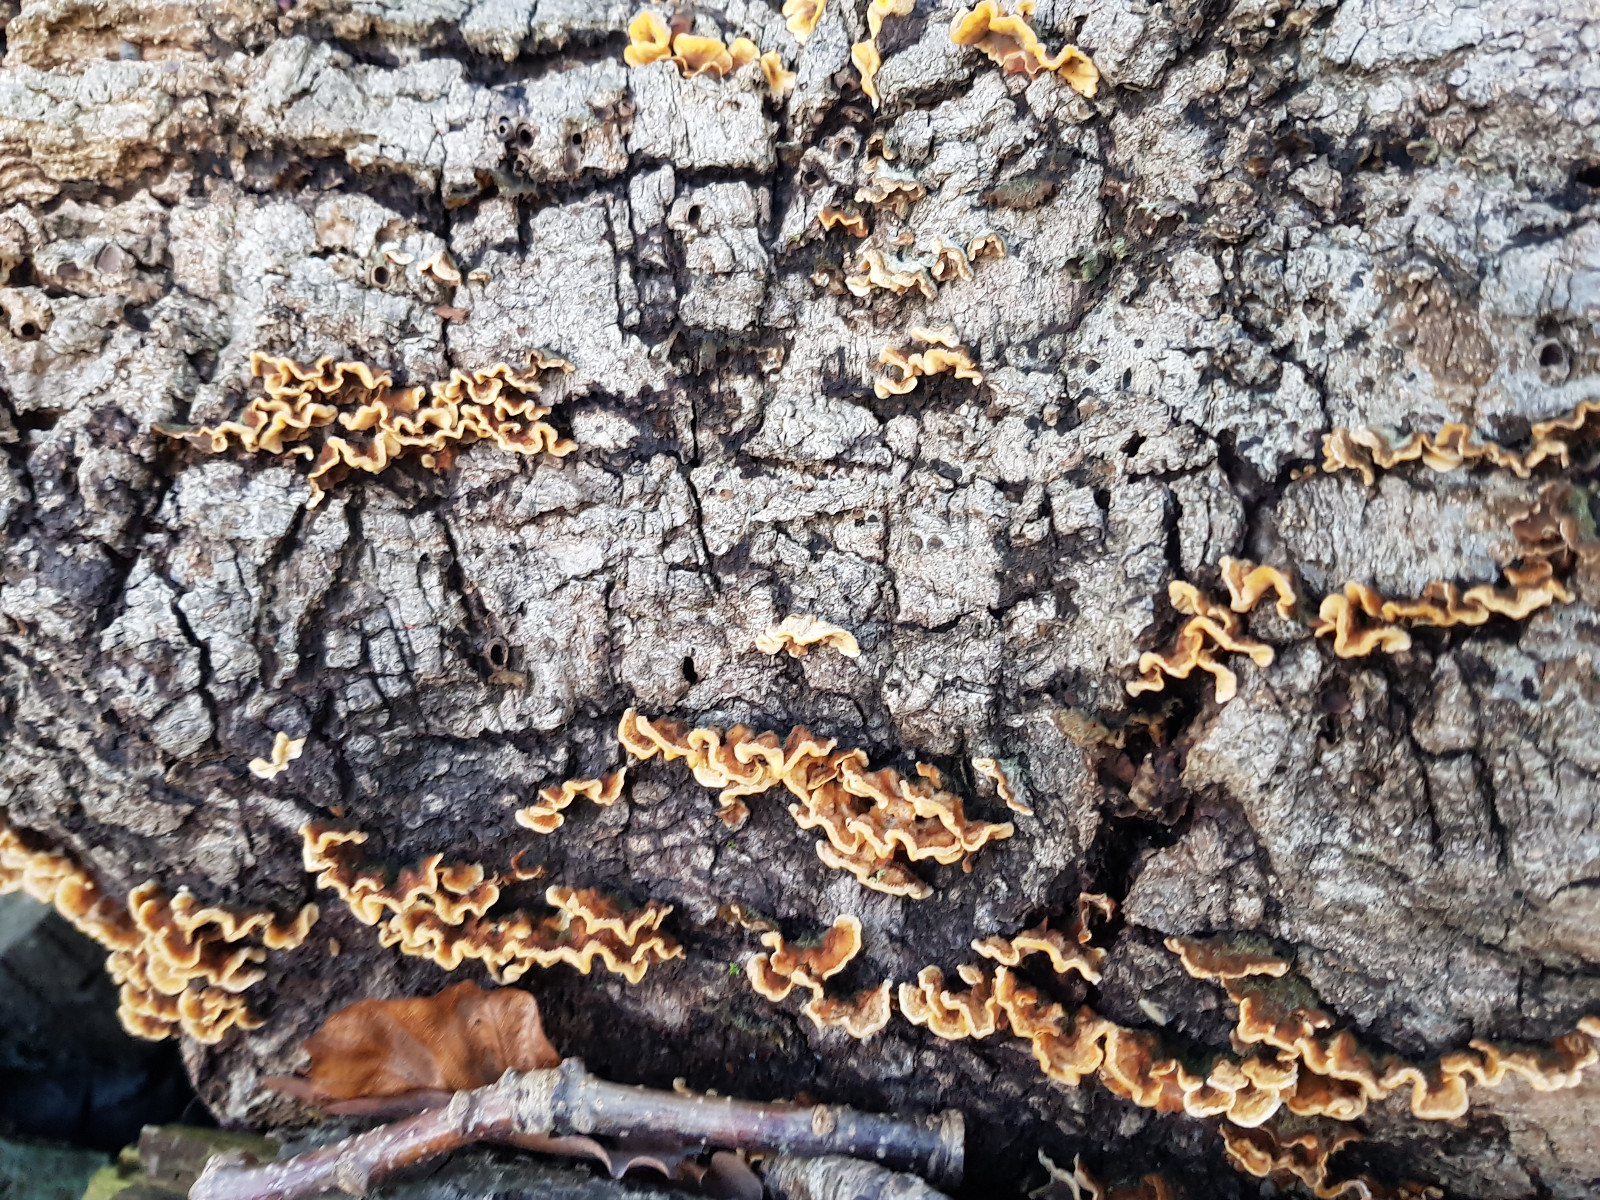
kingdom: Fungi
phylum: Basidiomycota
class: Agaricomycetes
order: Russulales
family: Stereaceae
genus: Stereum
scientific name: Stereum hirsutum
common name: håret lædersvamp
